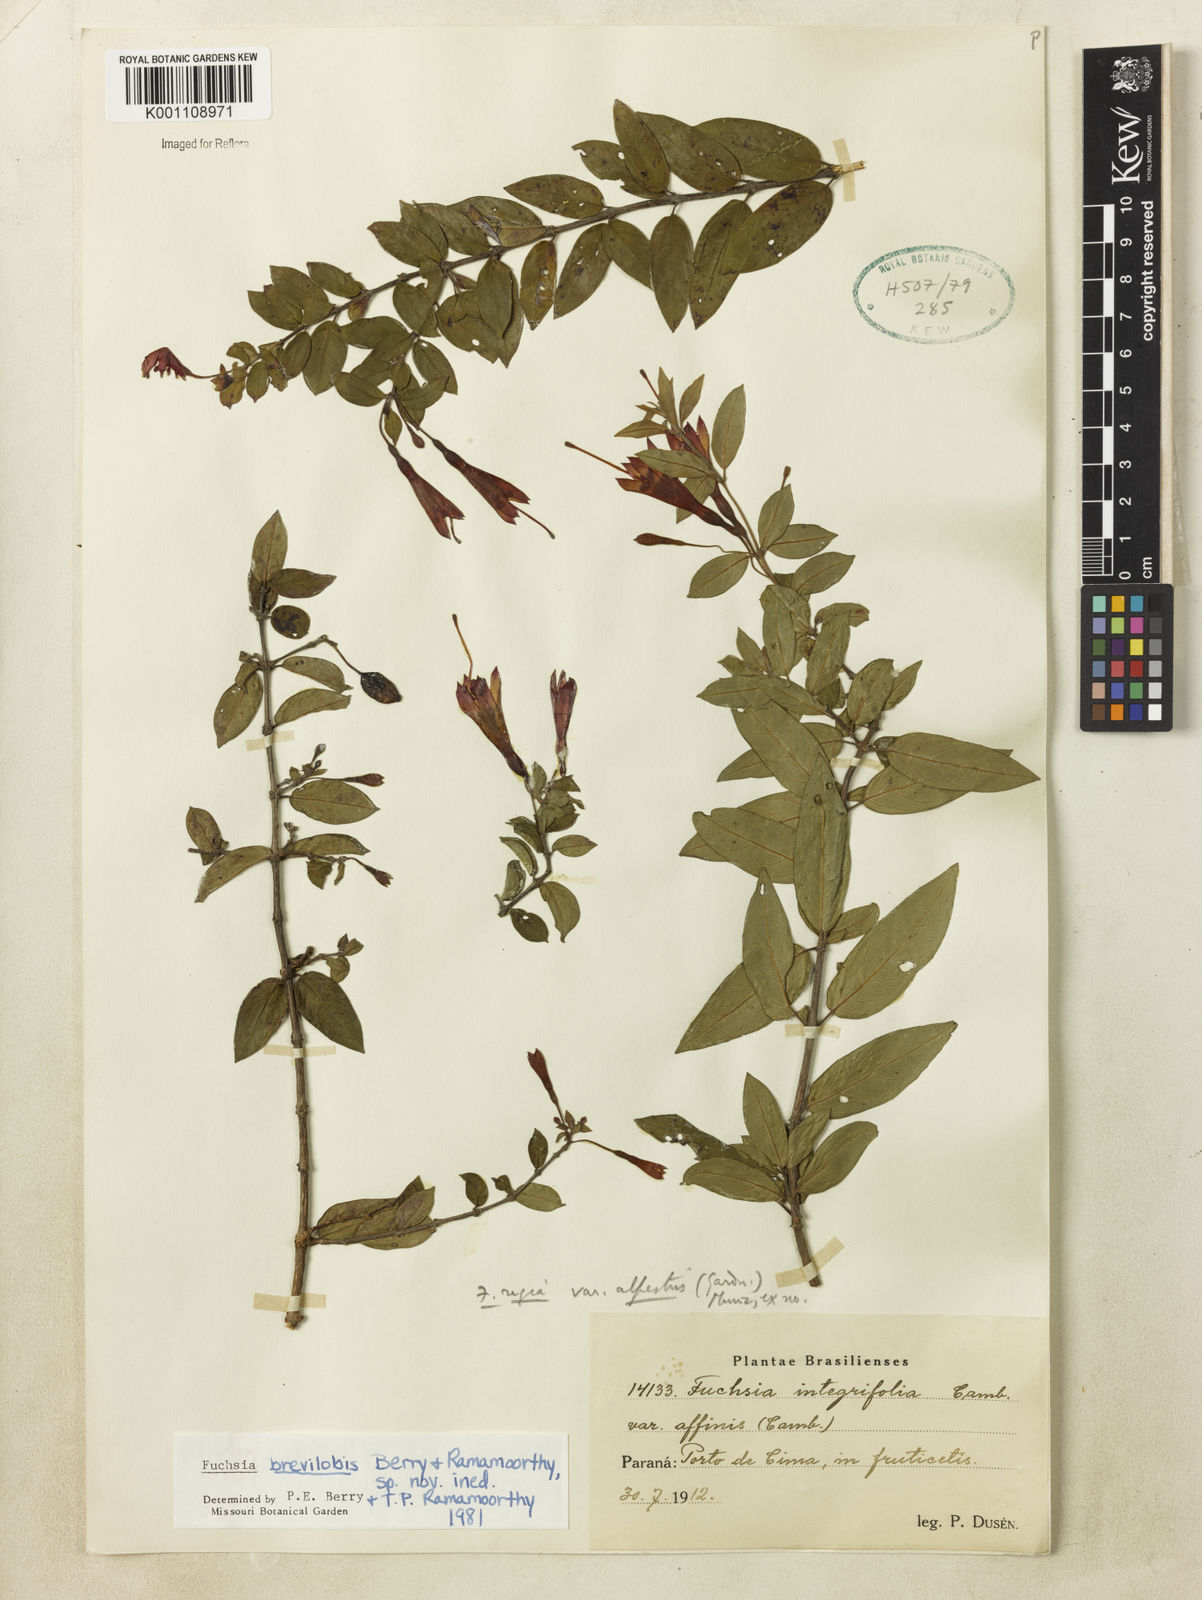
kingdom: Plantae
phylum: Tracheophyta
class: Magnoliopsida
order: Myrtales
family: Onagraceae
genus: Fuchsia
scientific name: Fuchsia brevilobis
